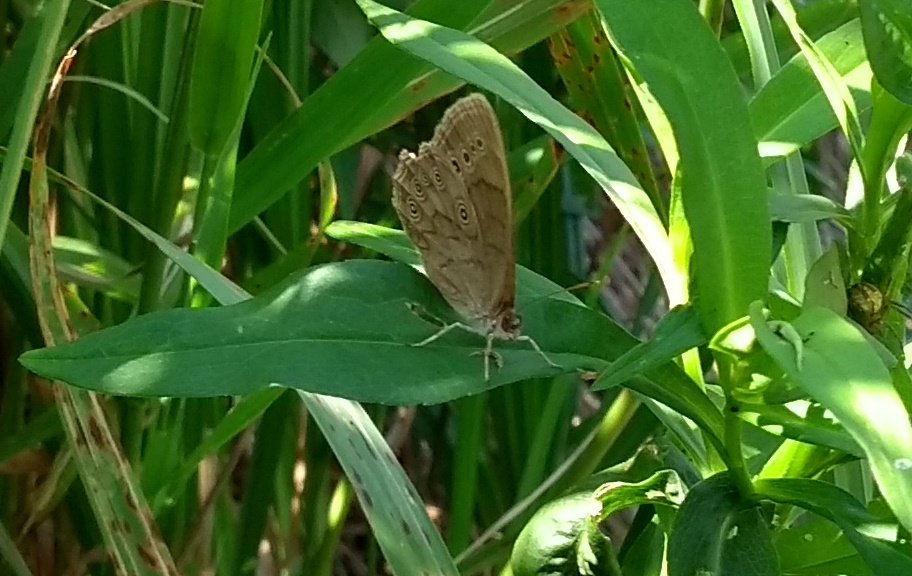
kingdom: Animalia
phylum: Arthropoda
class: Insecta
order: Lepidoptera
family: Nymphalidae
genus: Lethe
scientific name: Lethe eurydice
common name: Eyed Brown
